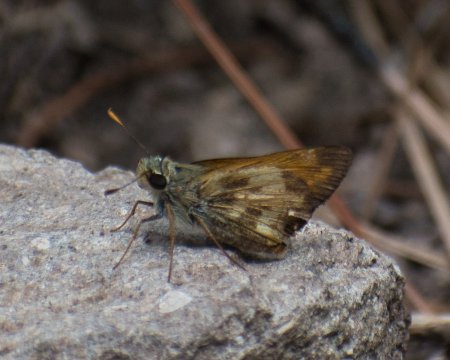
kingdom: Animalia
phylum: Arthropoda
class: Insecta
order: Lepidoptera
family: Hesperiidae
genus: Lon
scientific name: Lon taxiles
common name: Taxiles Skipper
